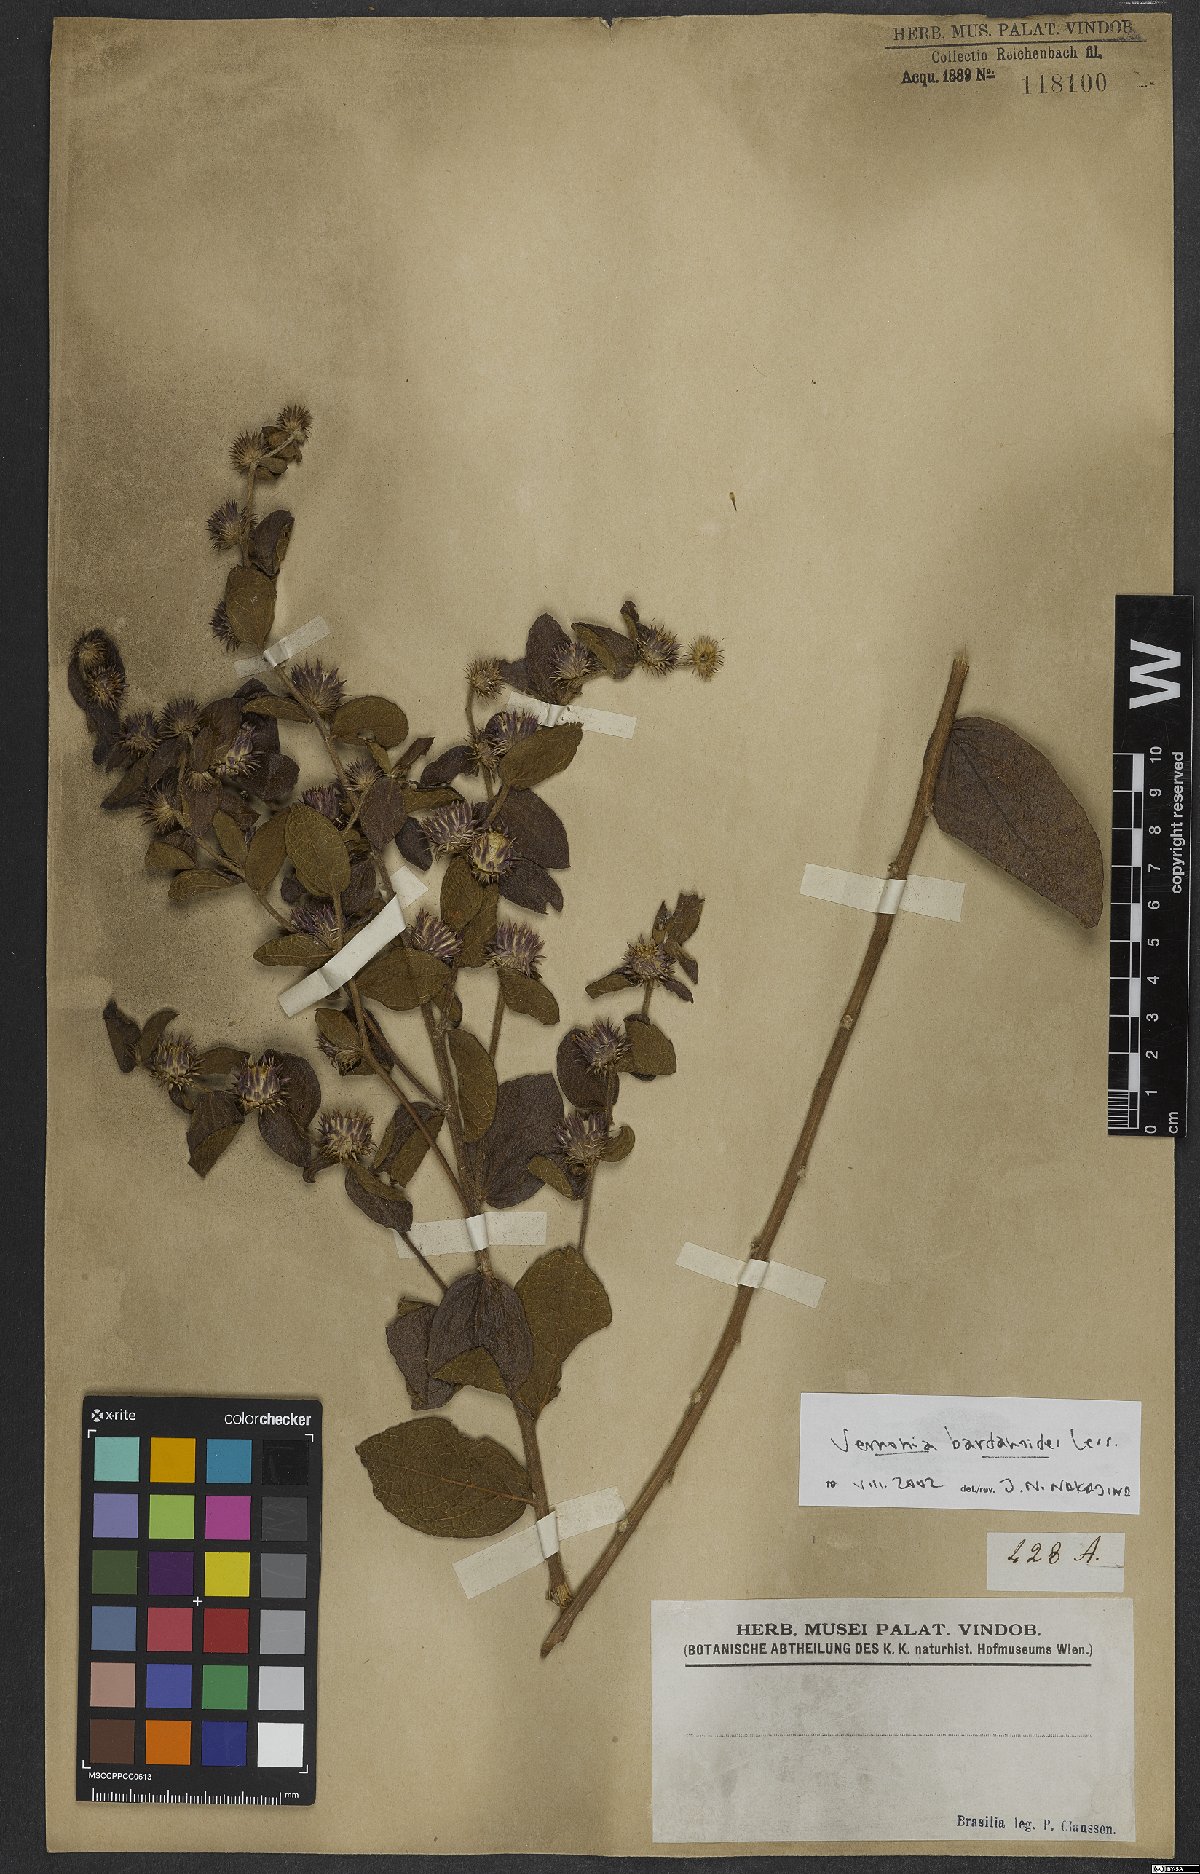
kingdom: Plantae
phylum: Tracheophyta
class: Magnoliopsida
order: Asterales
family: Asteraceae
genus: Lessingianthus
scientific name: Lessingianthus bardanioides
